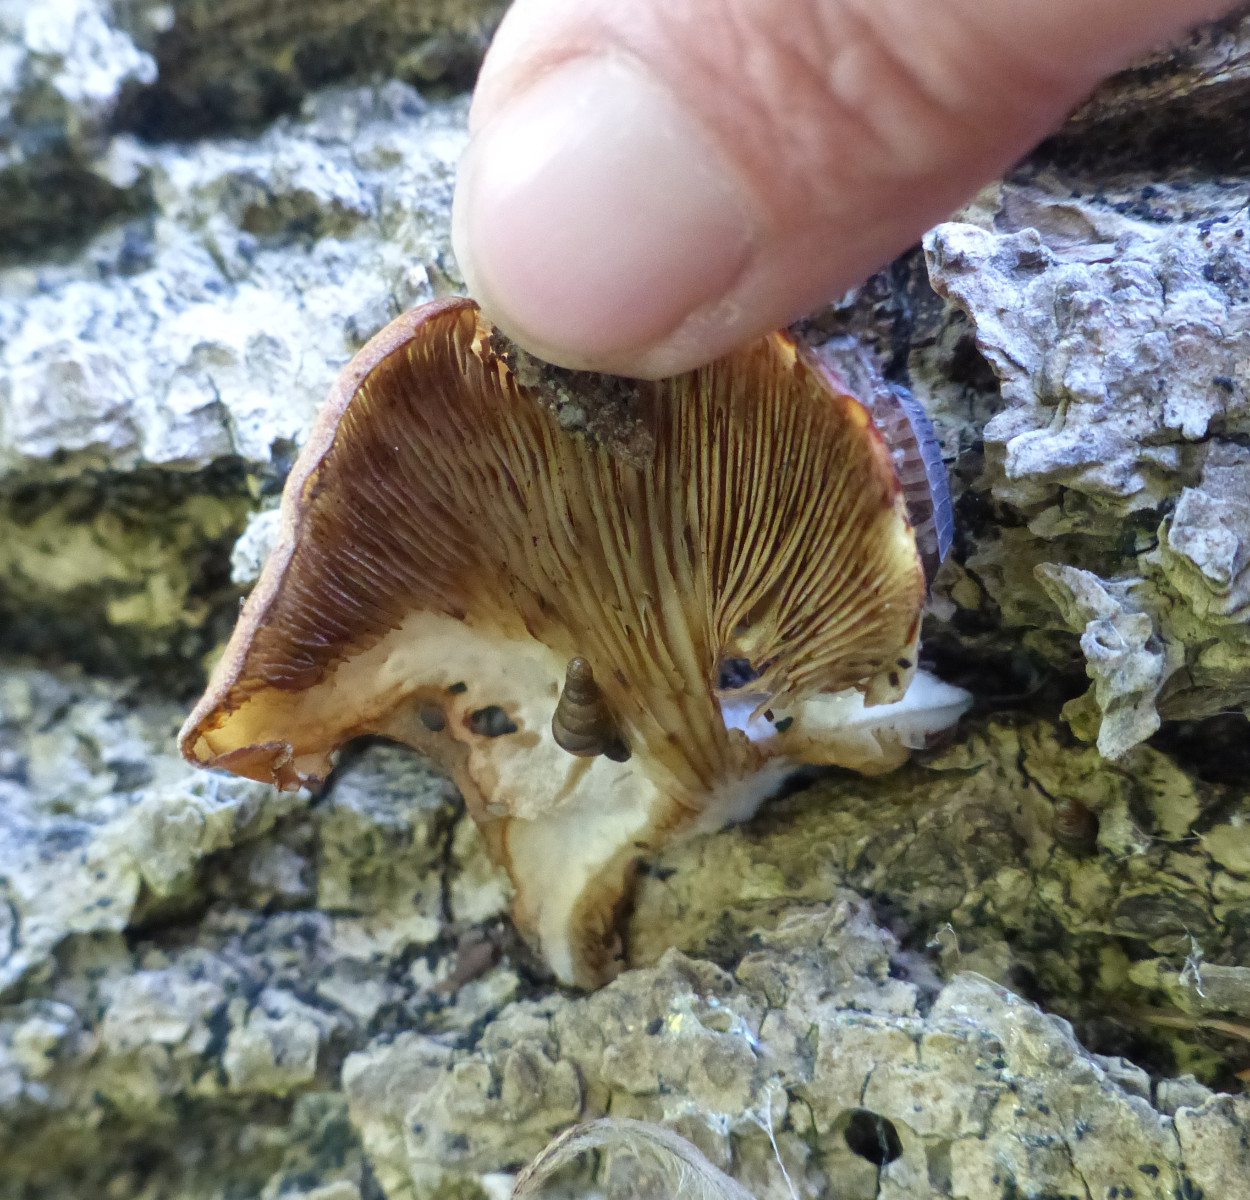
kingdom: Fungi
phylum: Basidiomycota
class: Agaricomycetes
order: Agaricales
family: Crepidotaceae
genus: Crepidotus
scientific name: Crepidotus mollis
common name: blød muslingesvamp
